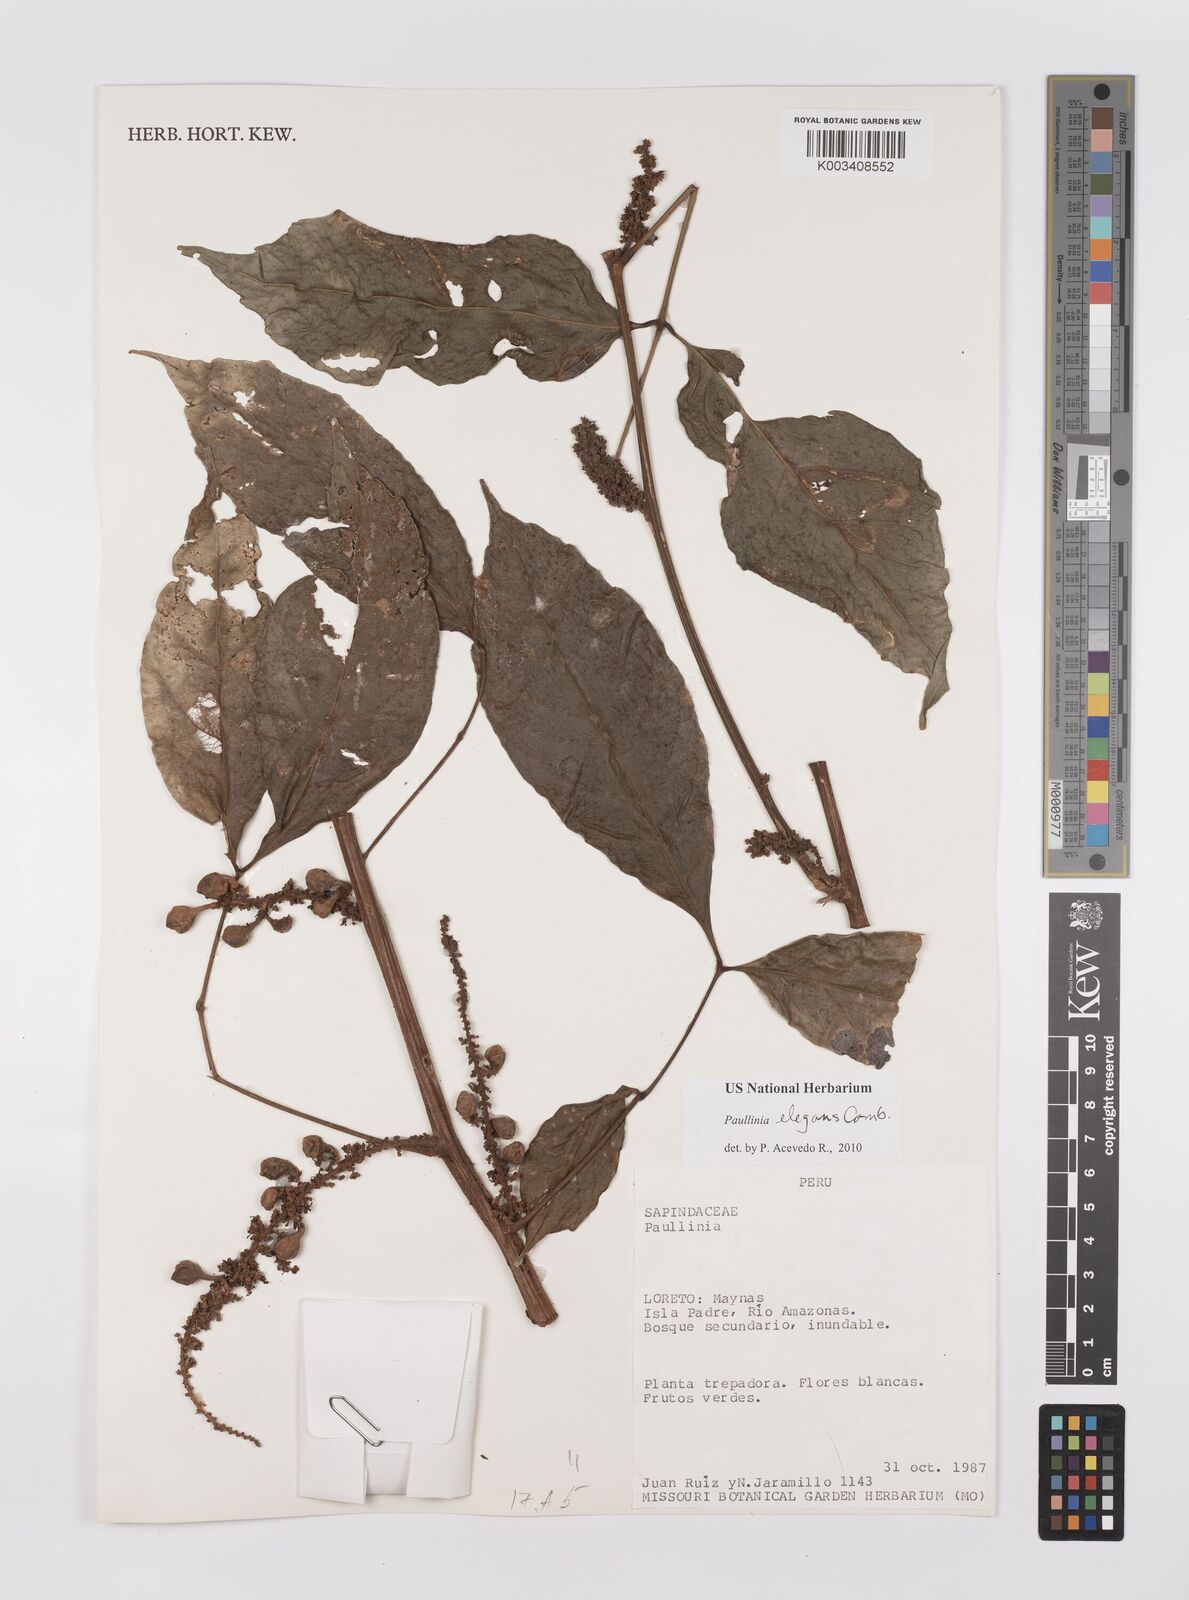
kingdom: Plantae
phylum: Tracheophyta
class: Magnoliopsida
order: Sapindales
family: Sapindaceae
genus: Paullinia
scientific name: Paullinia elegans
